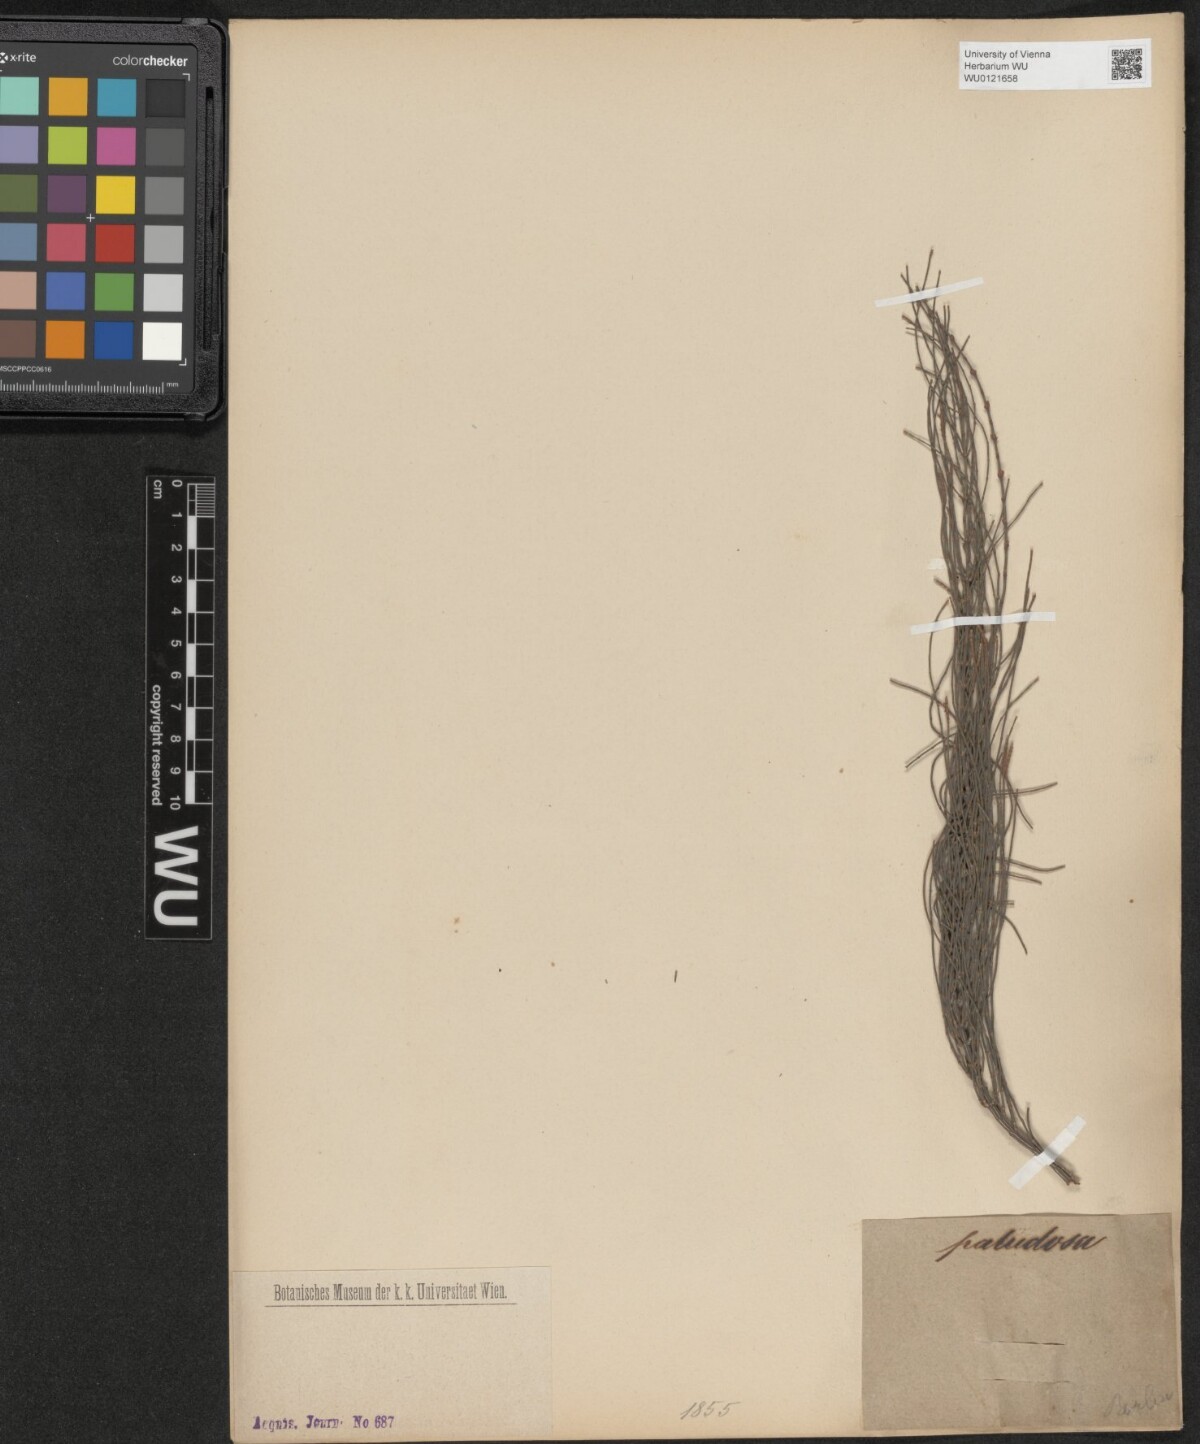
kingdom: Plantae
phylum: Tracheophyta
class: Magnoliopsida
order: Fagales
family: Casuarinaceae
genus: Allocasuarina
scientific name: Allocasuarina paludosa
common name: Scrub she-oak
